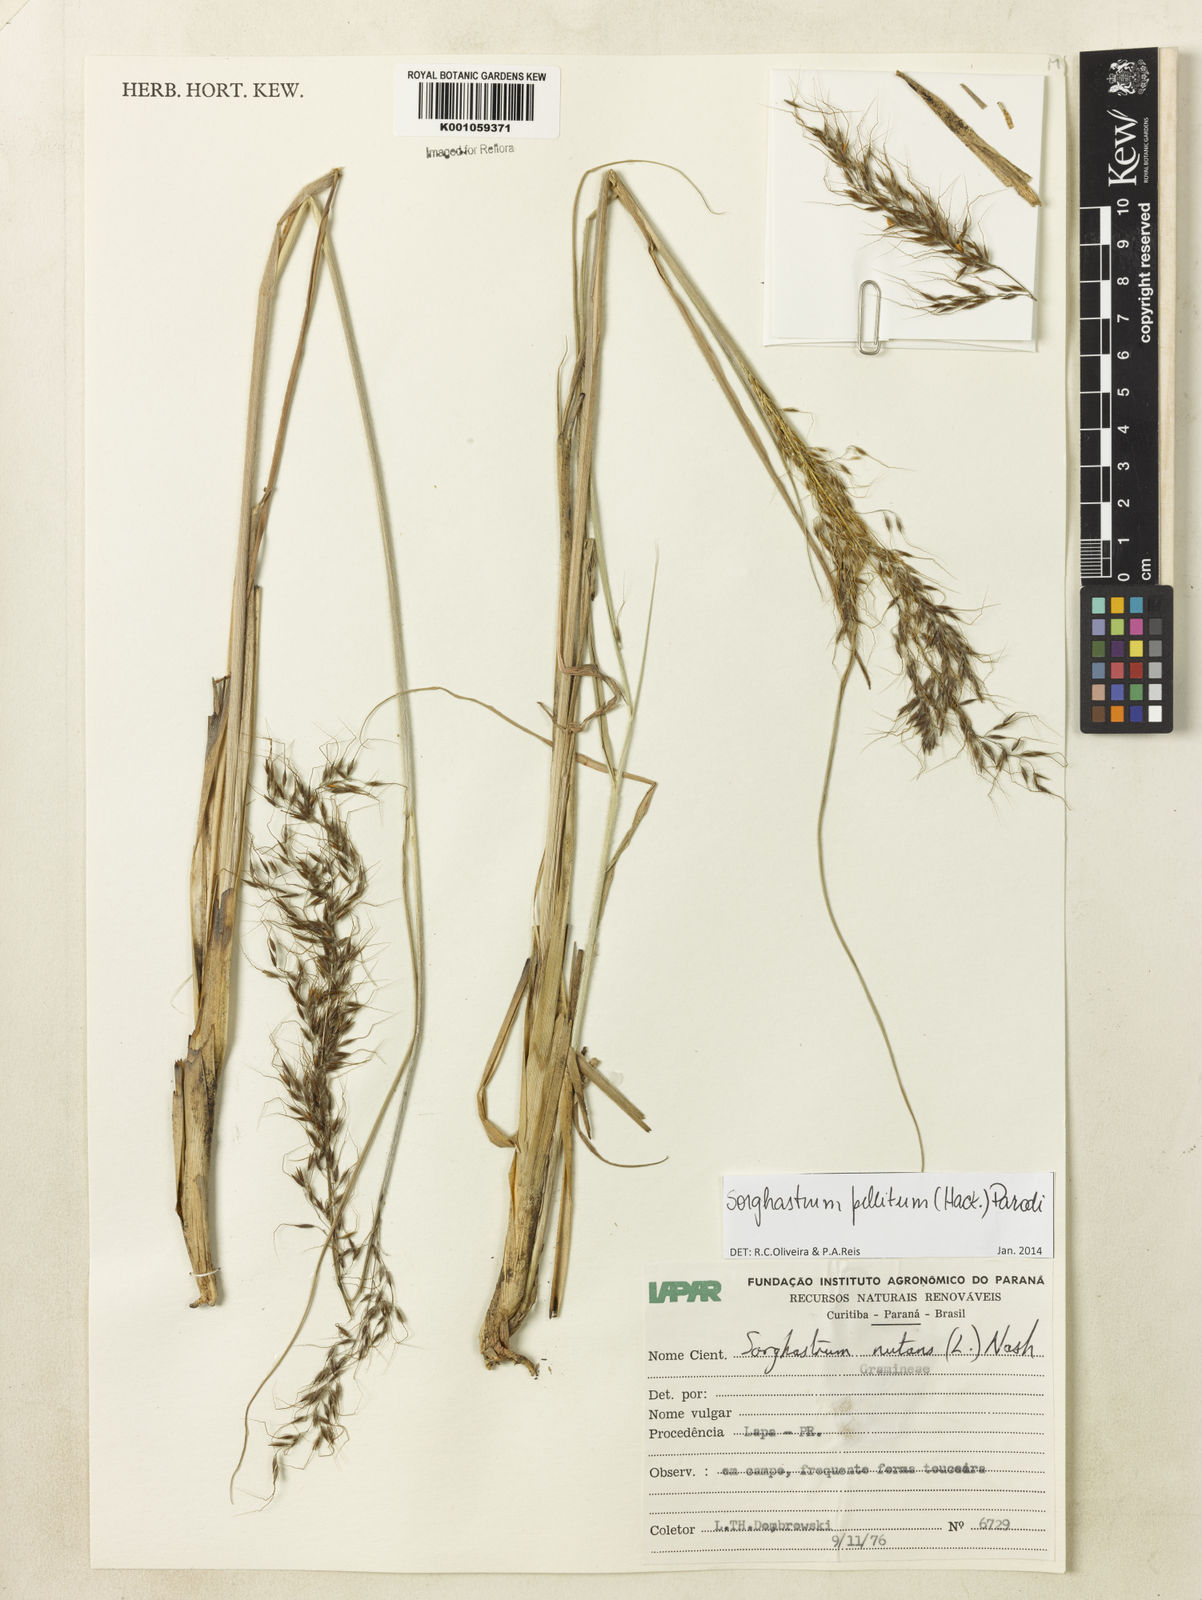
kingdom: Plantae
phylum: Tracheophyta
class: Liliopsida
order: Poales
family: Poaceae
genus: Sorghastrum
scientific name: Sorghastrum pellitum
